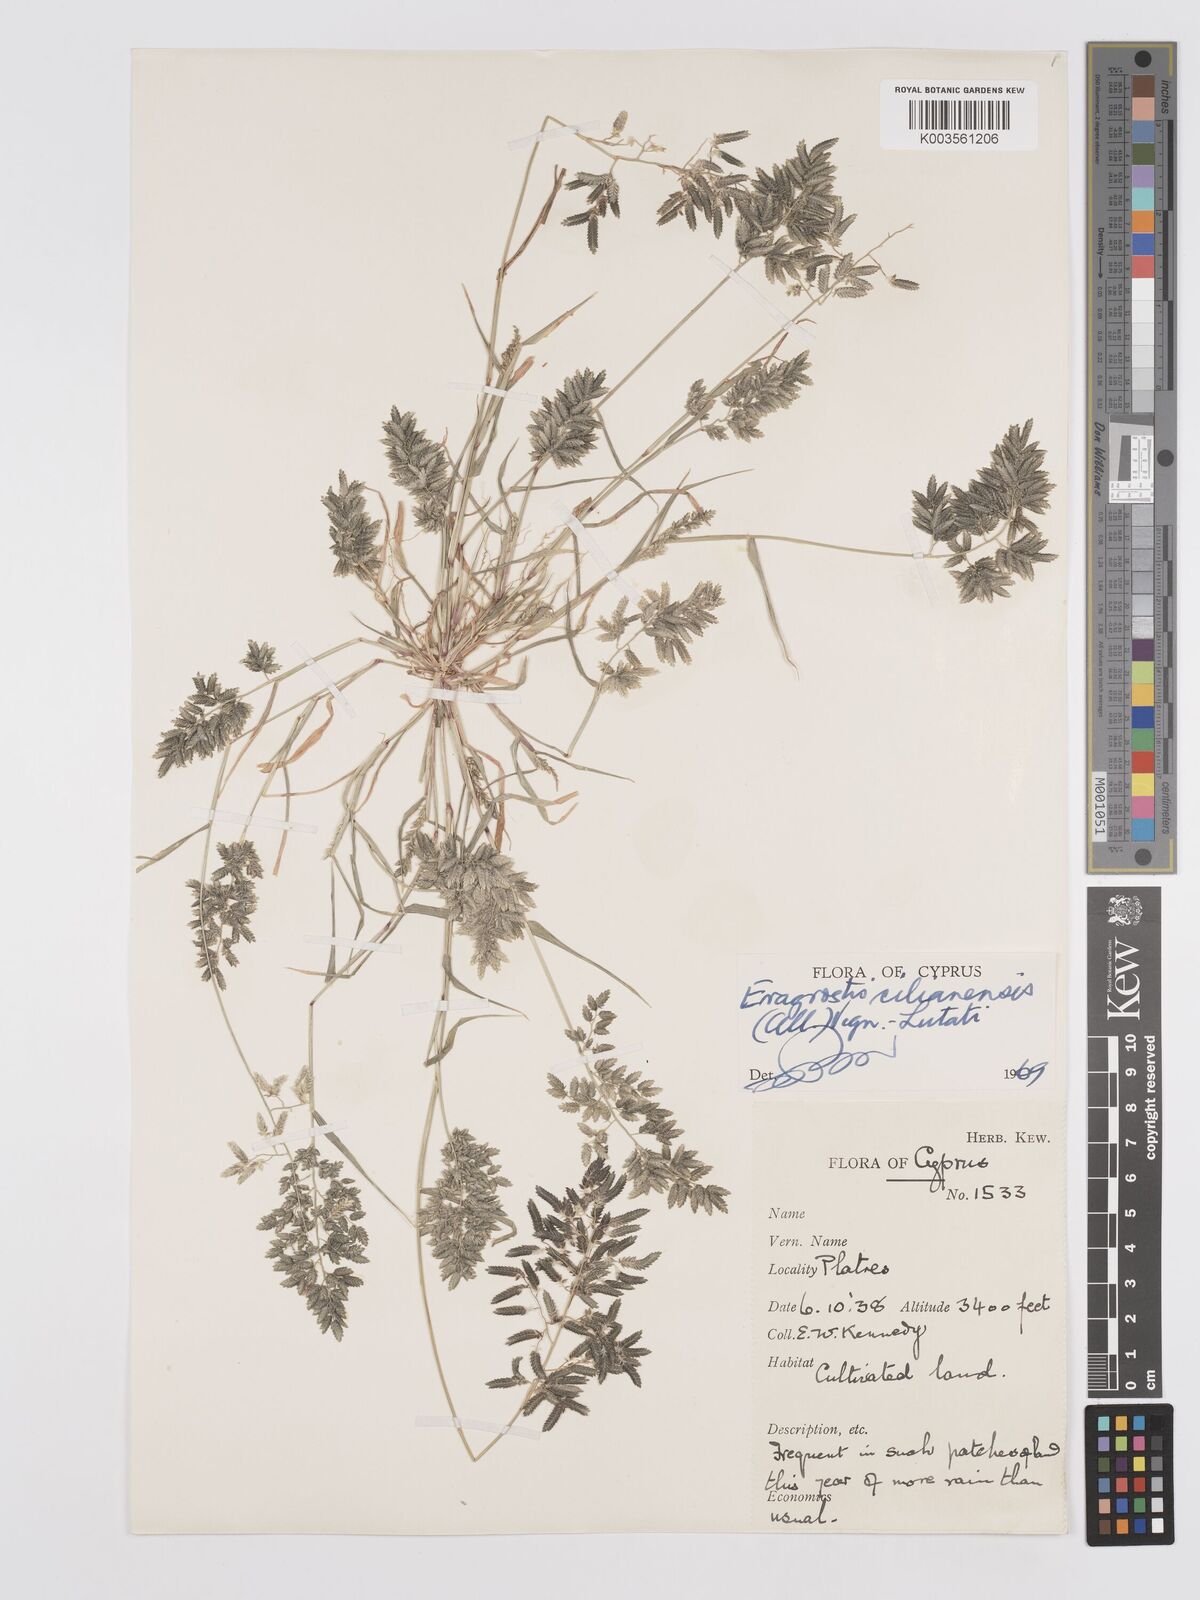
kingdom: Plantae
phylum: Tracheophyta
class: Liliopsida
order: Poales
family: Poaceae
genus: Eragrostis
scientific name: Eragrostis cilianensis
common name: Stinkgrass
